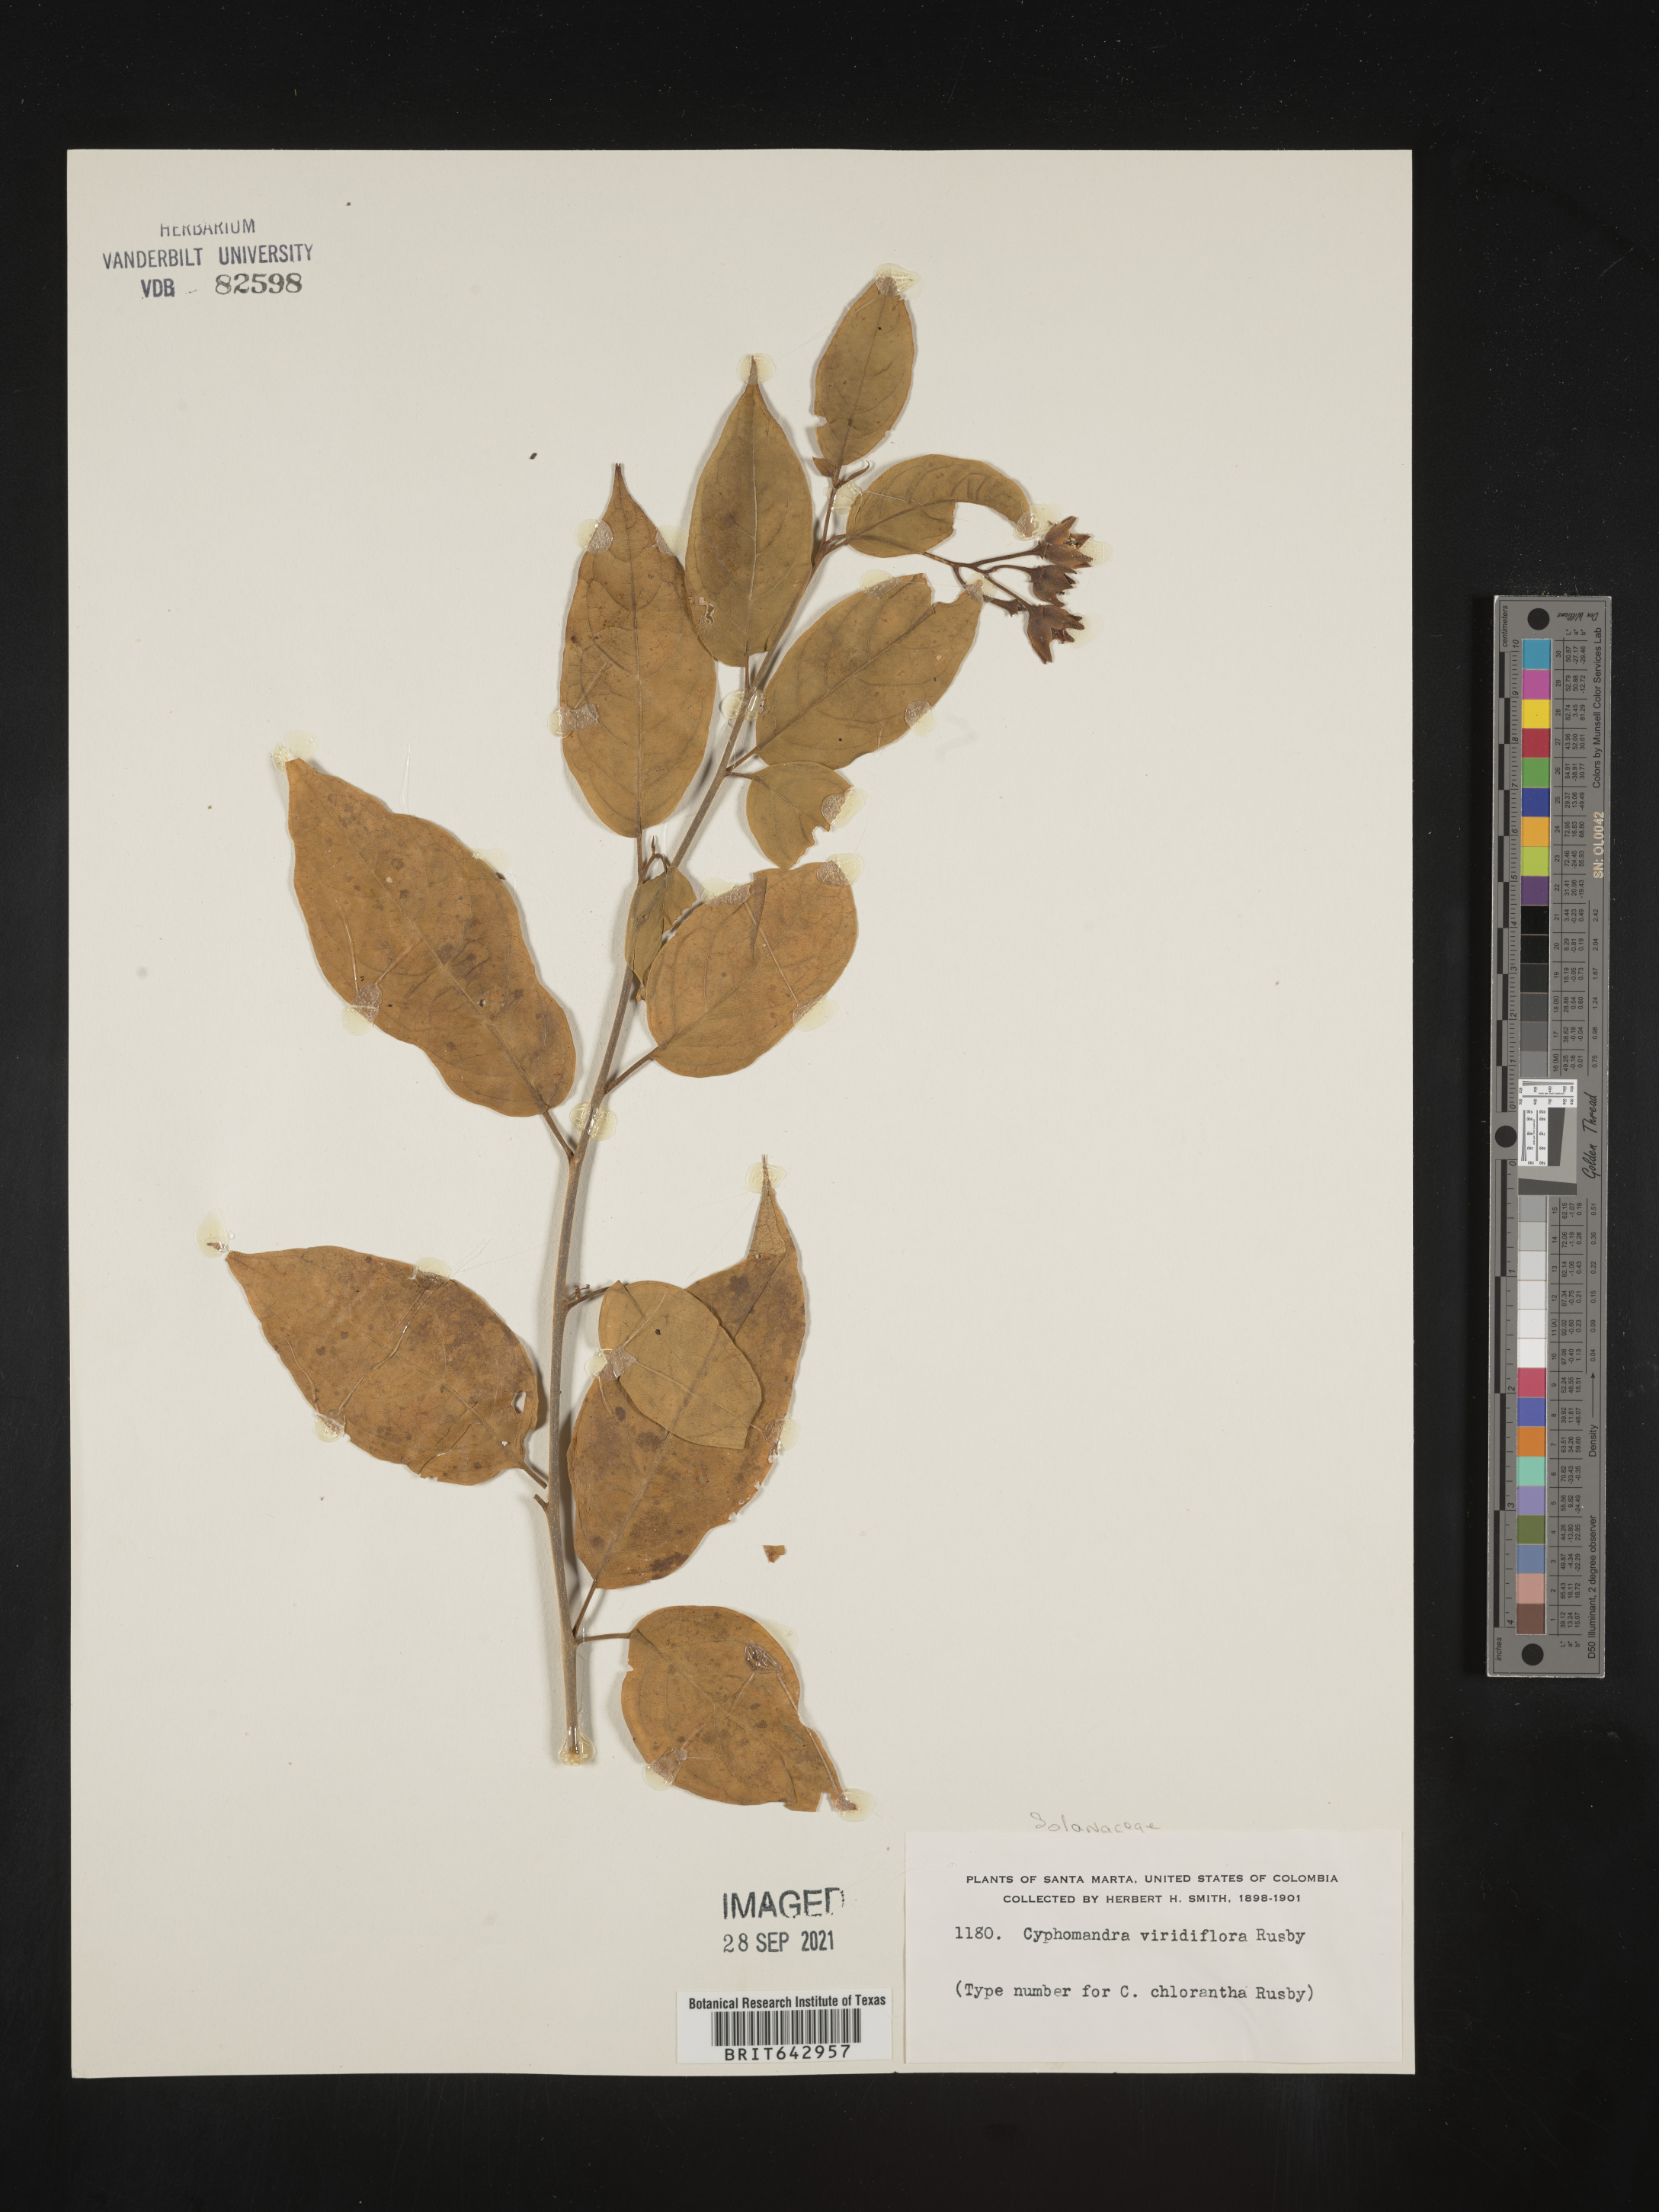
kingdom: Plantae
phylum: Tracheophyta
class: Magnoliopsida
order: Solanales
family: Solanaceae
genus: Solanum
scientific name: Solanum
